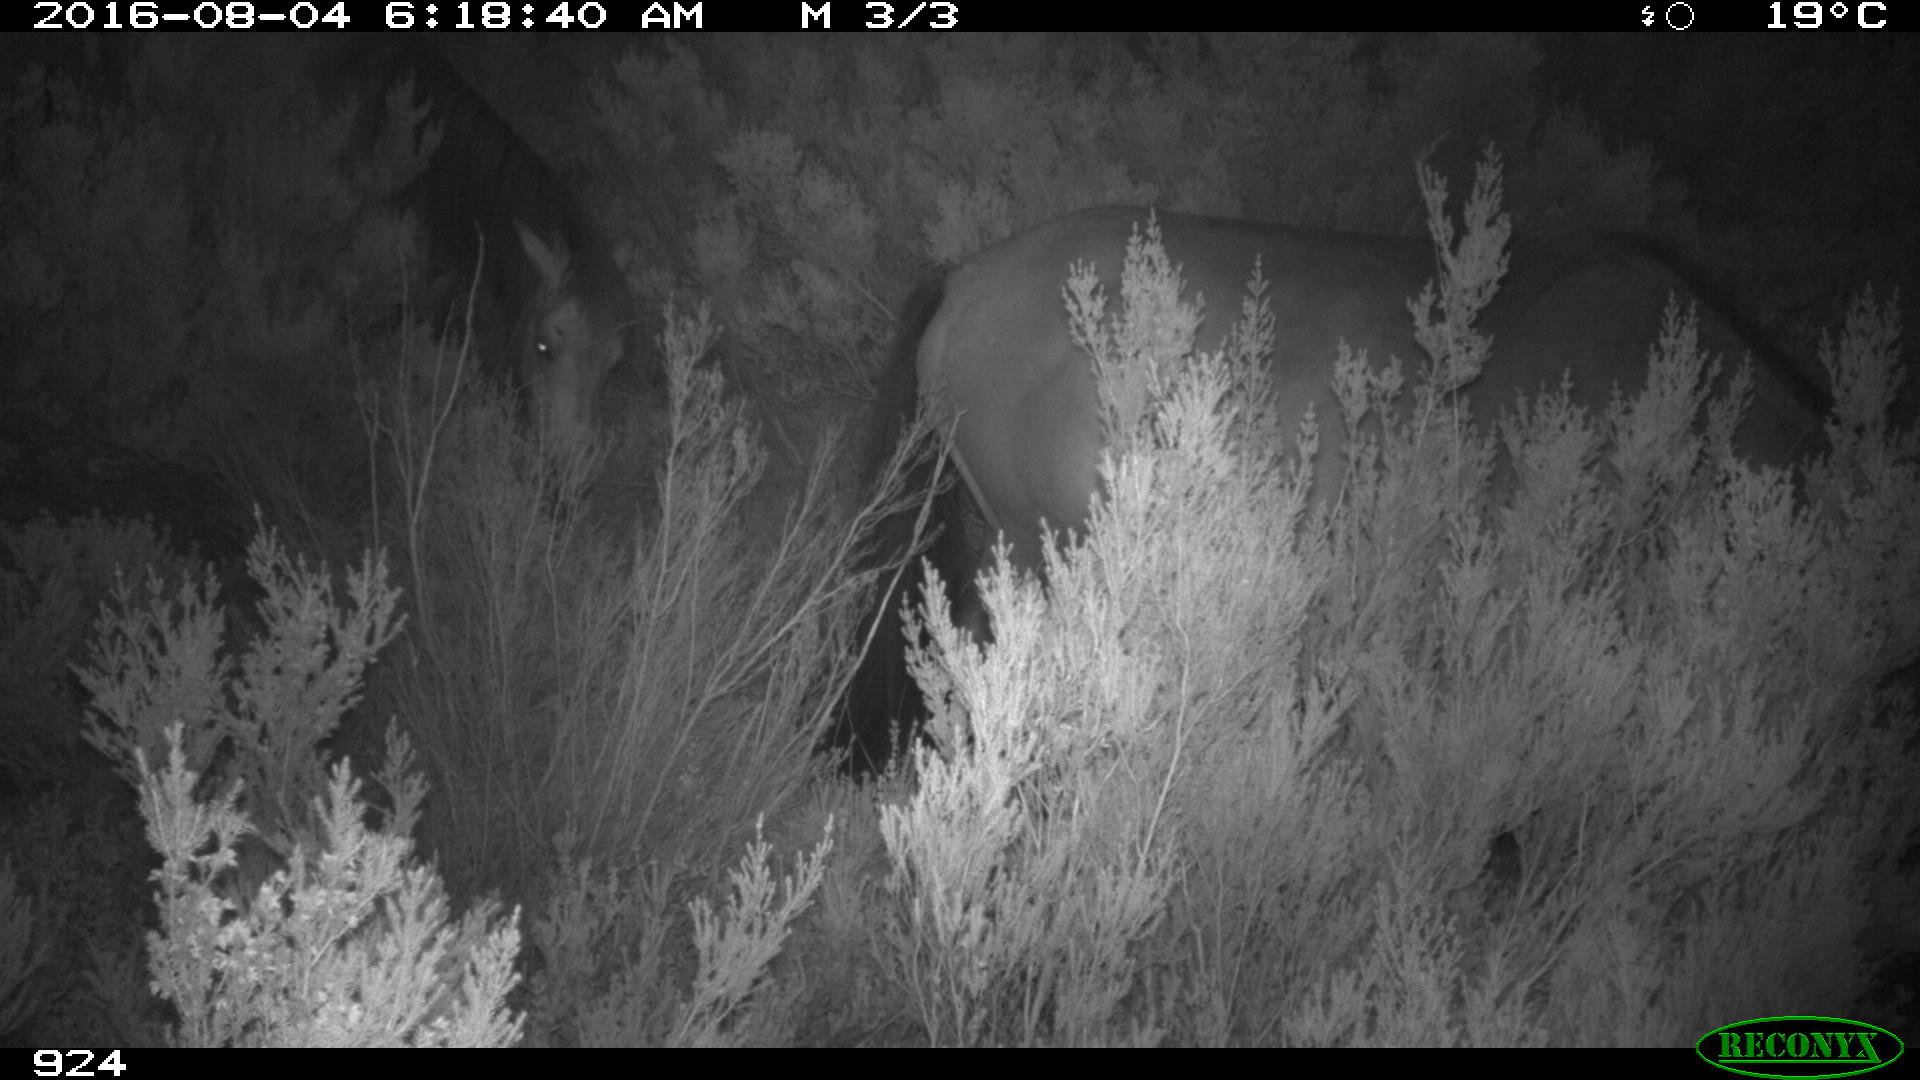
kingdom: Animalia
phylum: Chordata
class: Mammalia
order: Perissodactyla
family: Equidae
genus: Equus
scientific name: Equus caballus
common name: Horse
